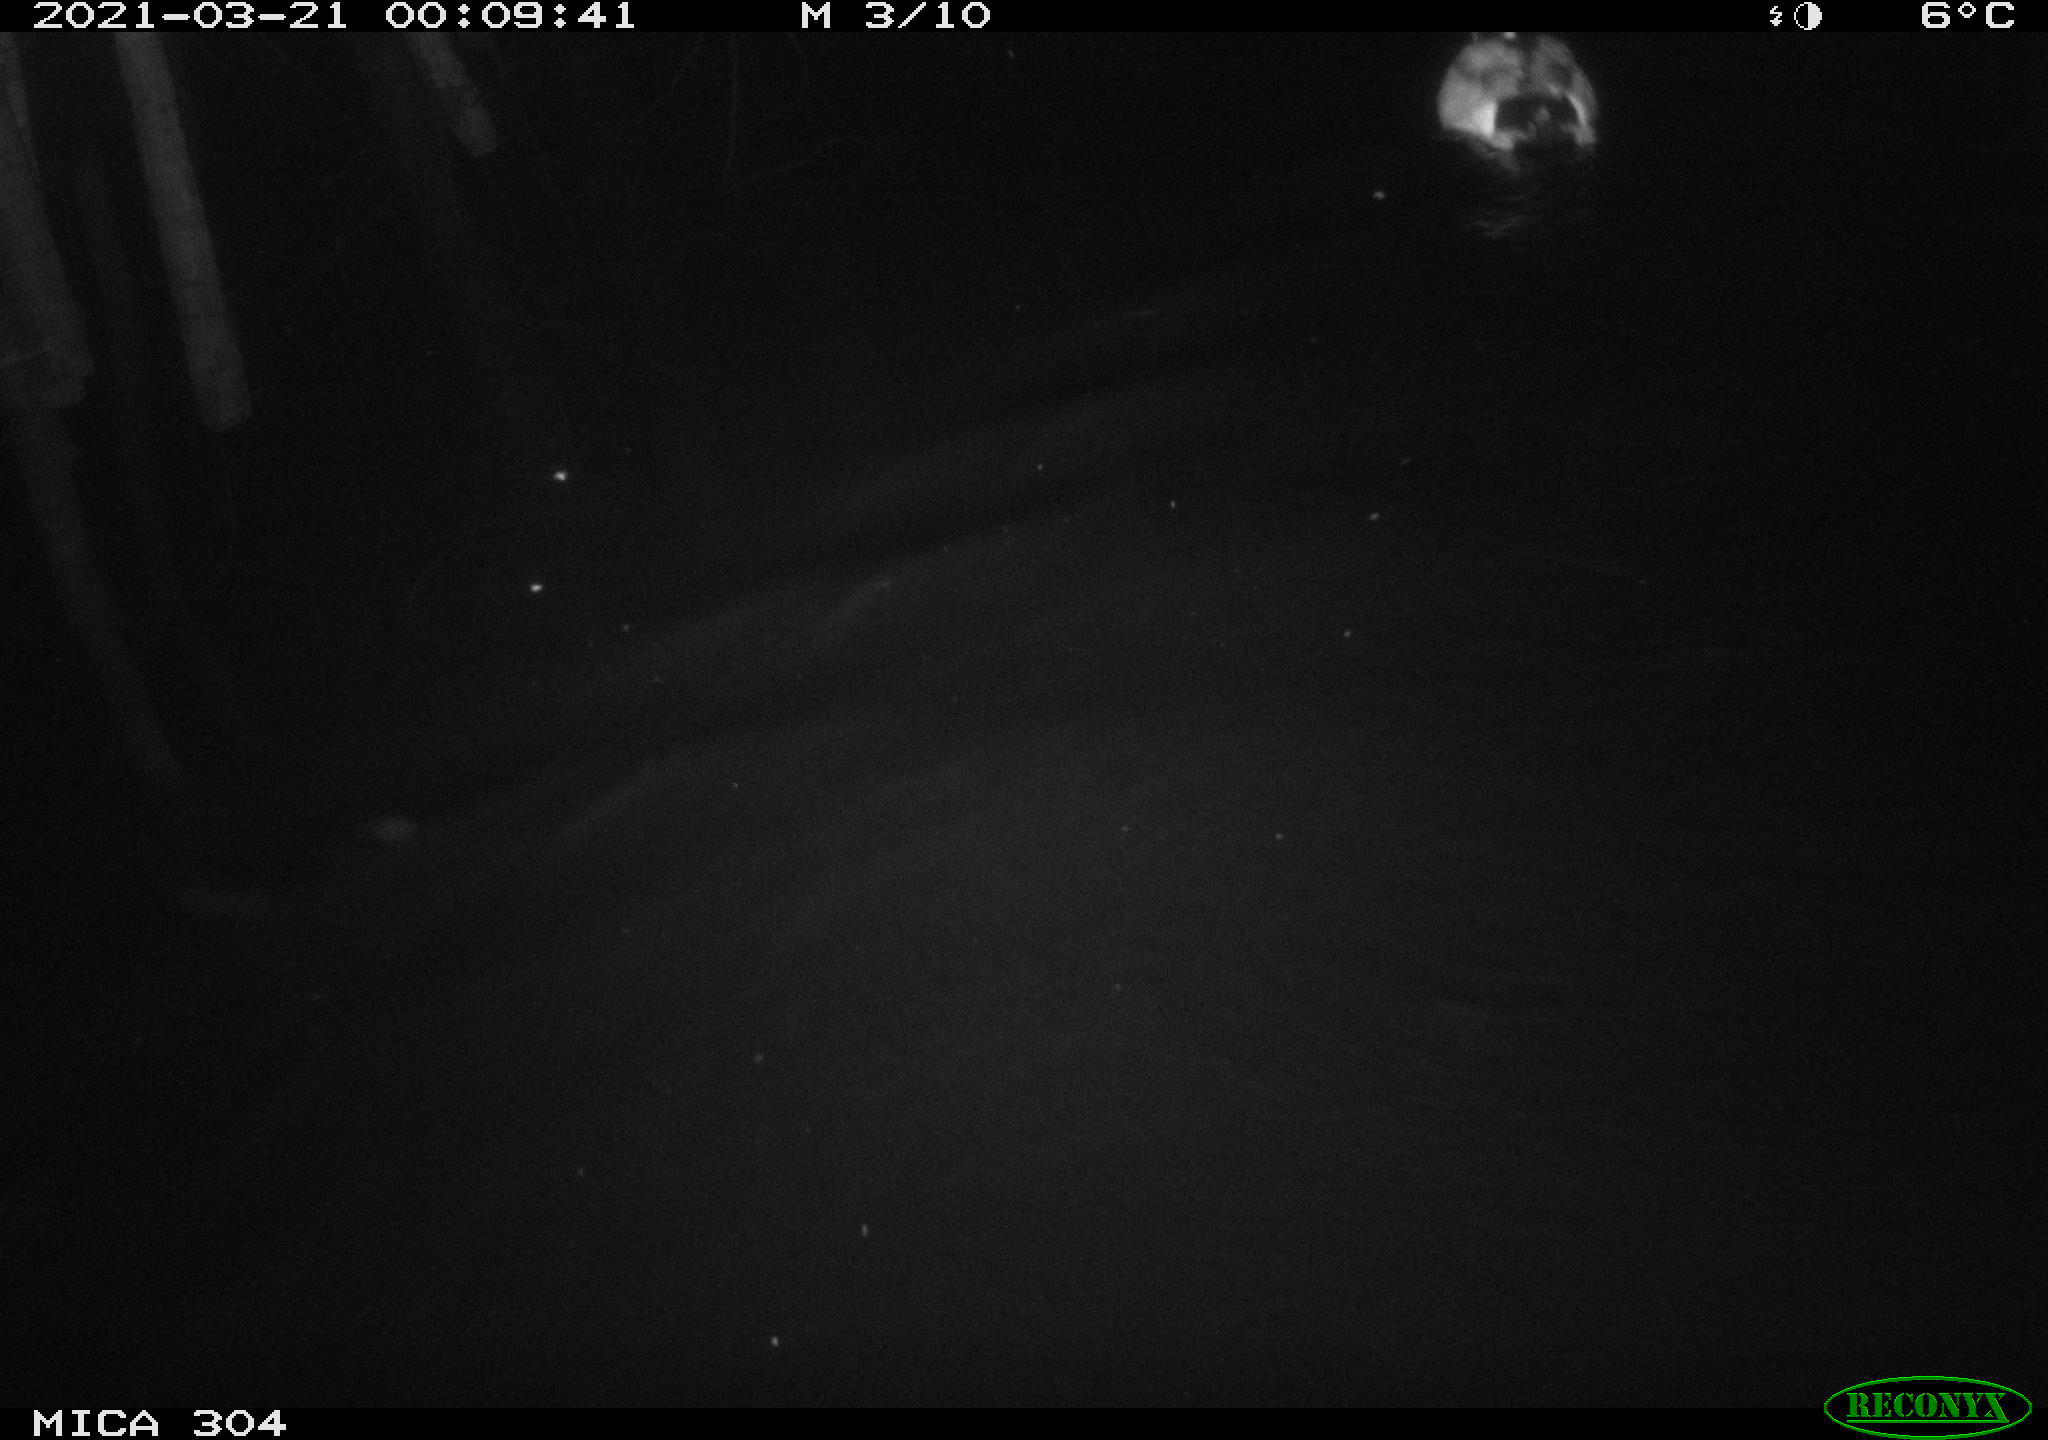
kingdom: Animalia
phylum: Chordata
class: Aves
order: Anseriformes
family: Anatidae
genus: Anas
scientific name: Anas platyrhynchos
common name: Mallard
